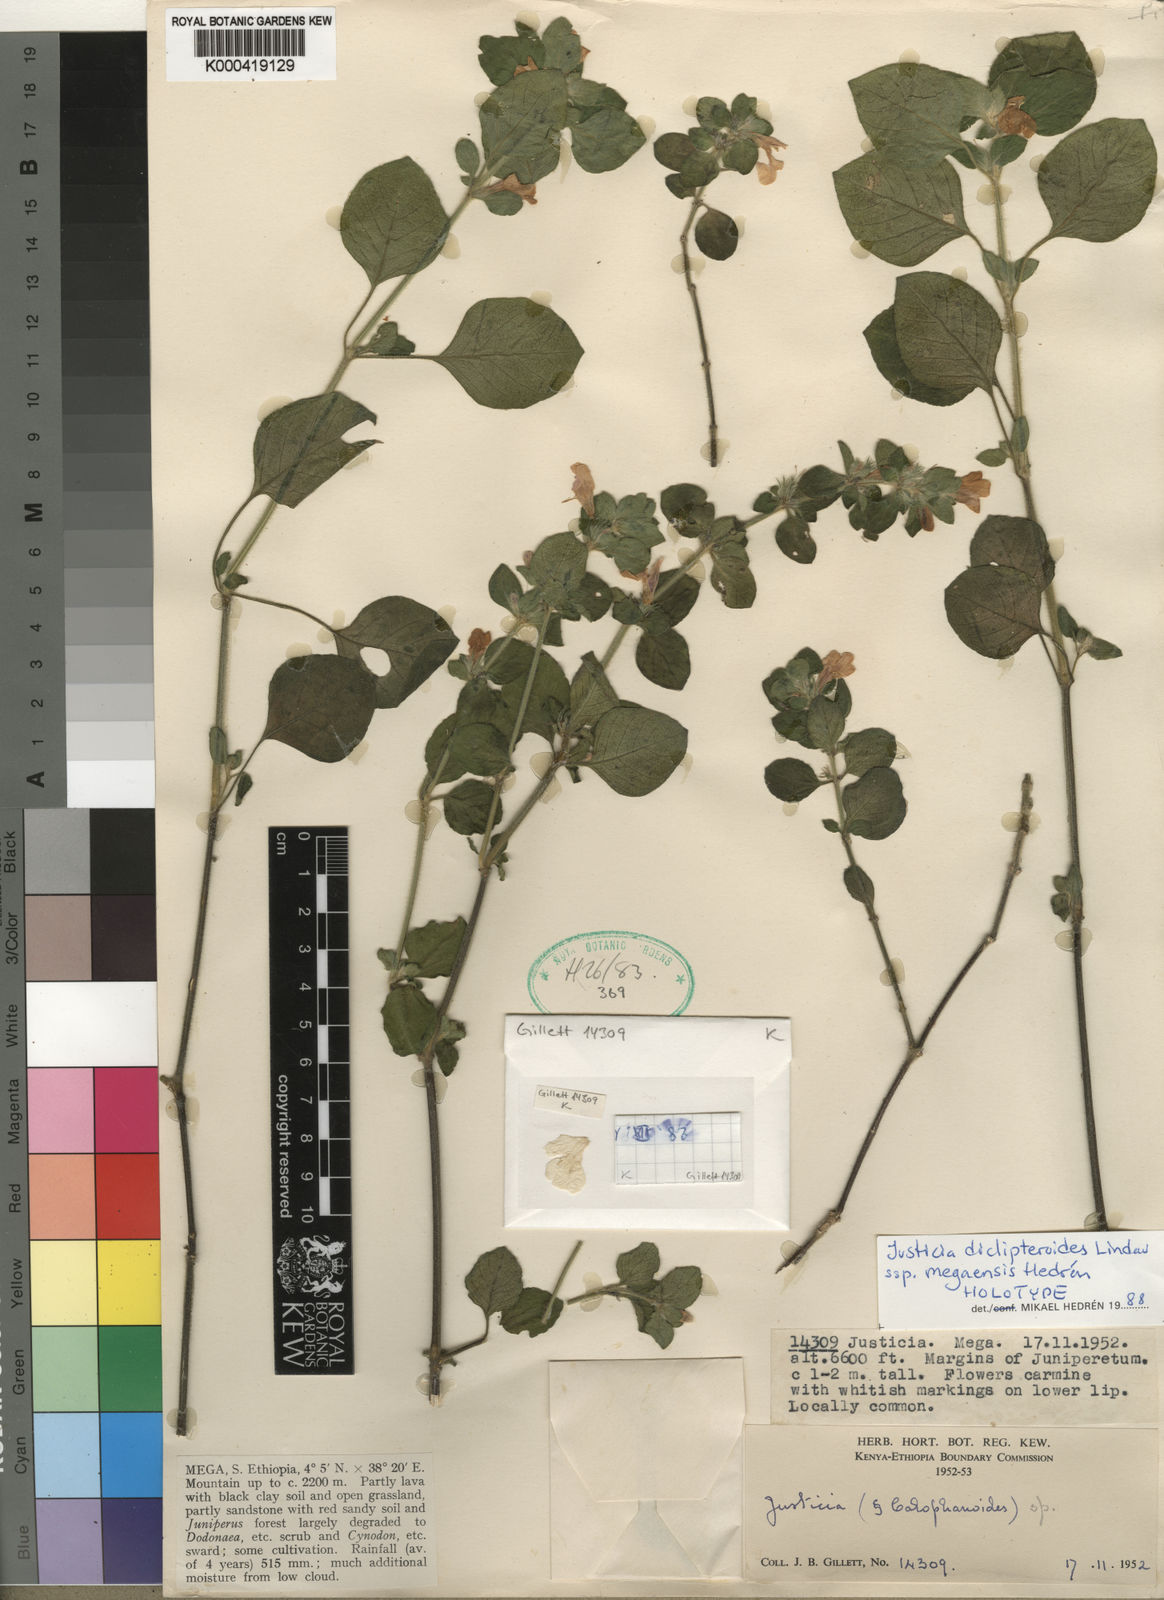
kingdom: Plantae
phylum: Tracheophyta
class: Magnoliopsida
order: Lamiales
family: Acanthaceae
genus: Justicia
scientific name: Justicia diclipteroides
